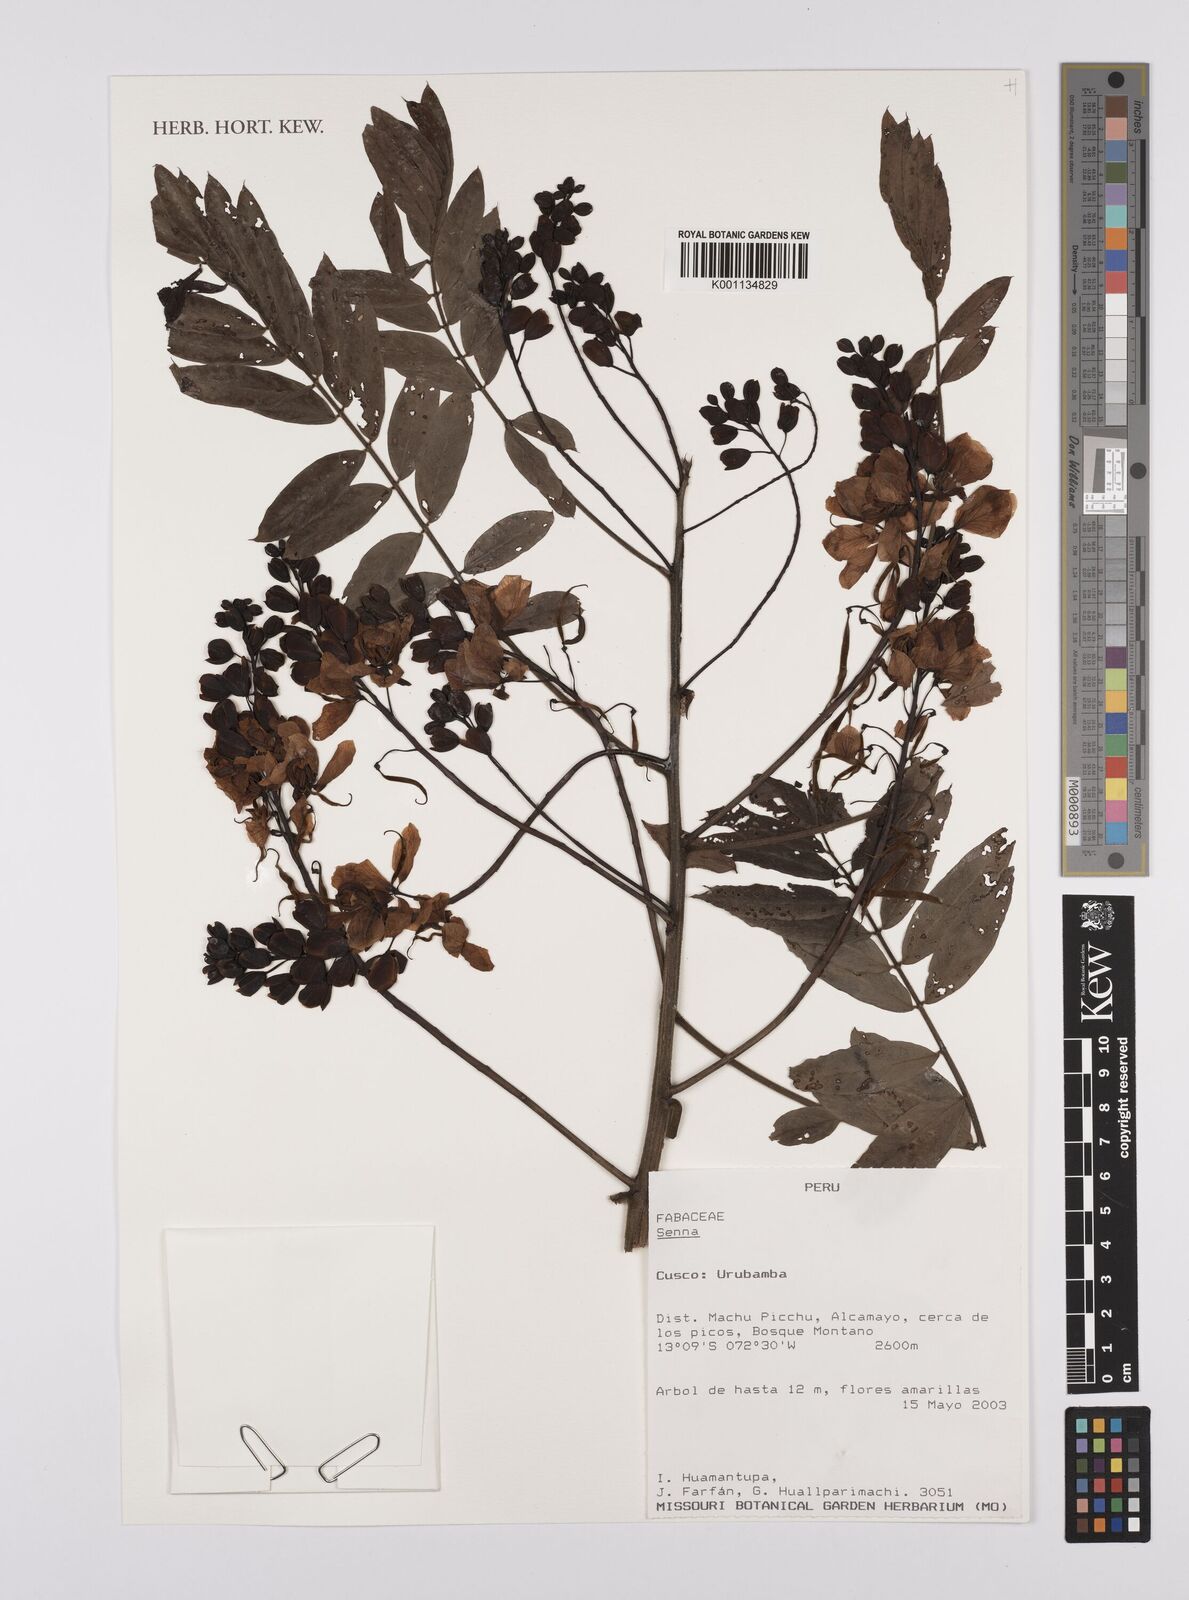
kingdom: Plantae
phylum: Tracheophyta
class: Magnoliopsida
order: Fabales
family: Fabaceae
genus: Senna
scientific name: Senna
